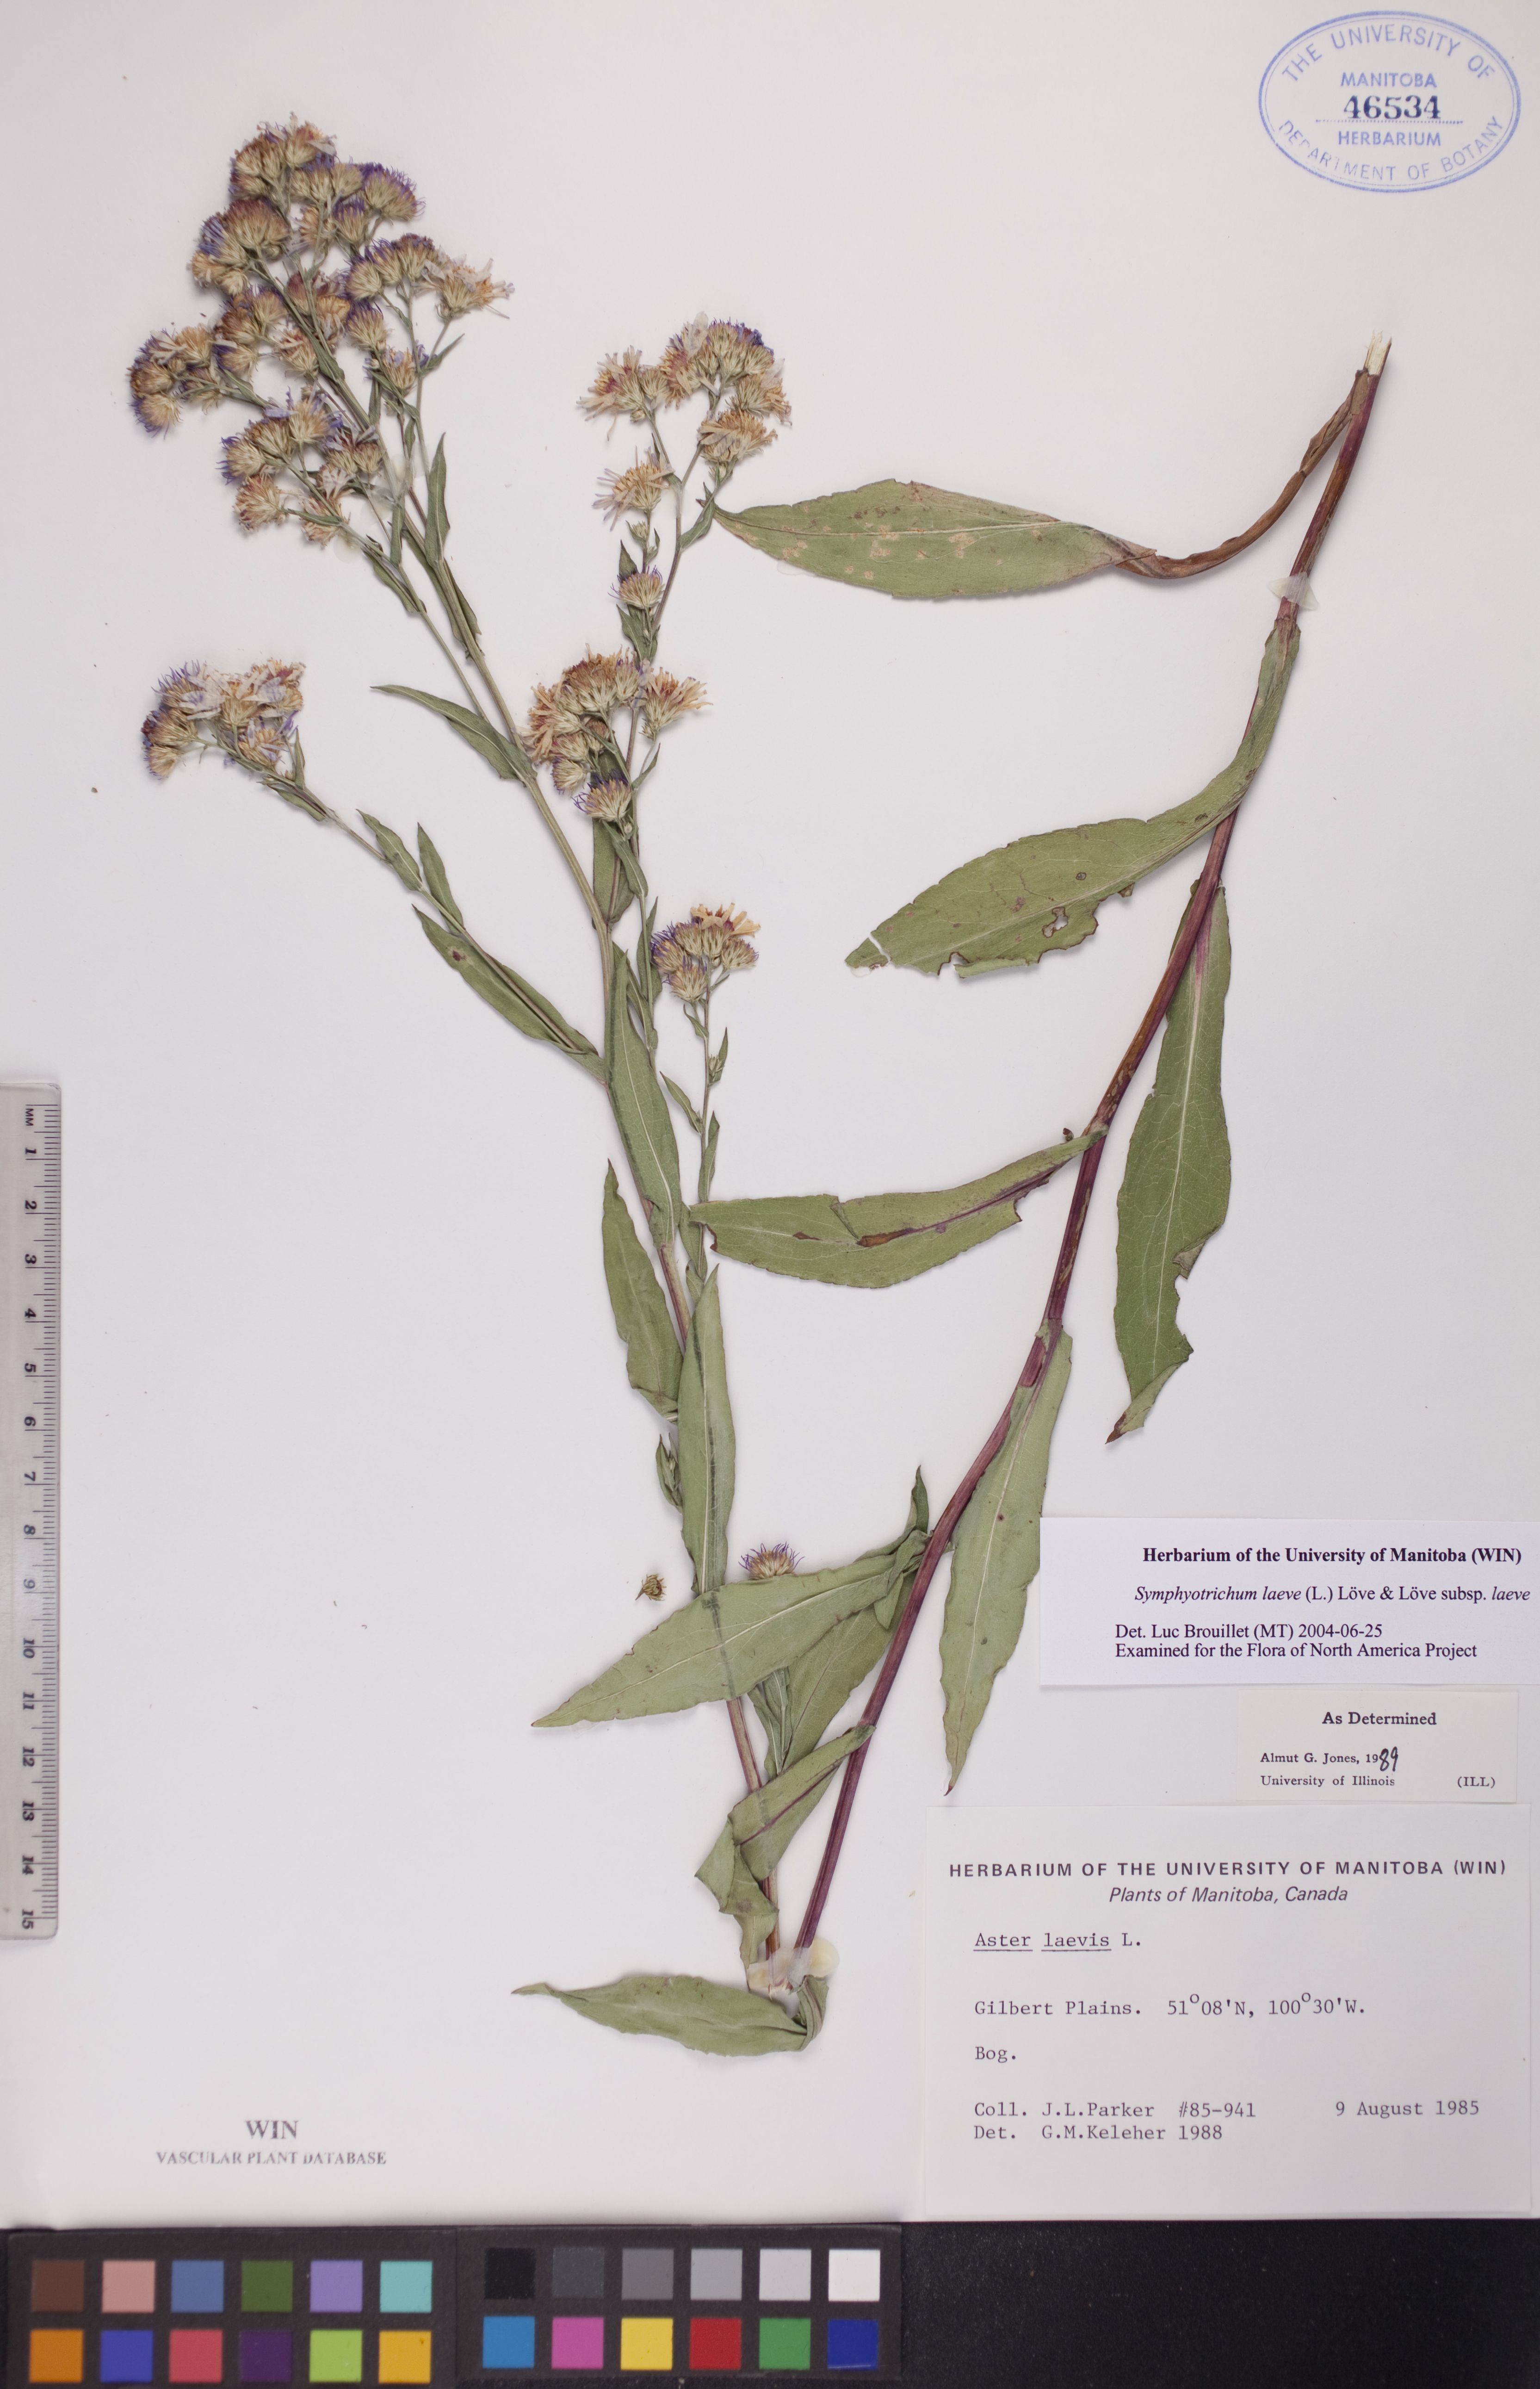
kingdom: Plantae
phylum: Tracheophyta
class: Magnoliopsida
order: Asterales
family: Asteraceae
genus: Symphyotrichum
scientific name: Symphyotrichum laeve
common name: Glaucous aster
